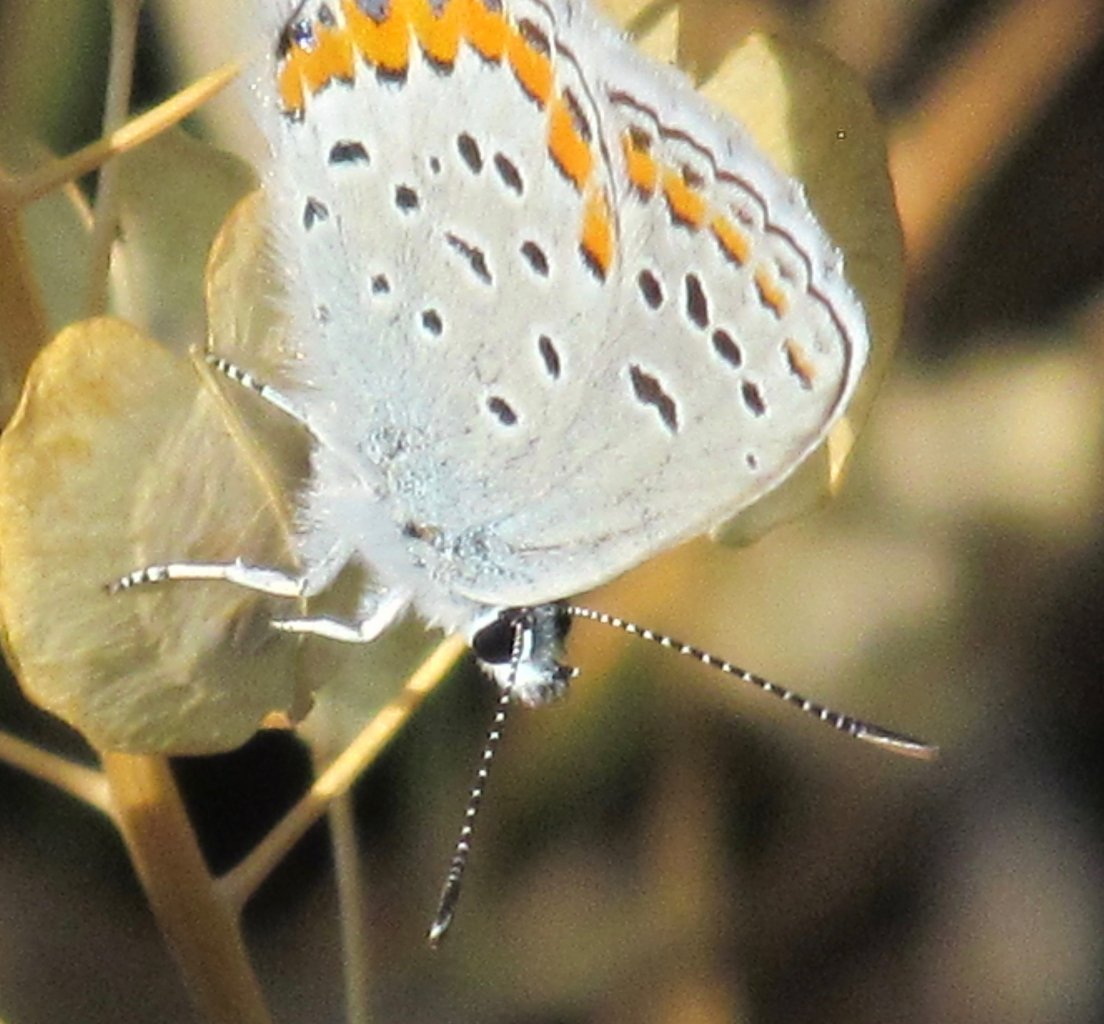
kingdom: Animalia
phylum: Arthropoda
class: Insecta
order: Lepidoptera
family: Lycaenidae
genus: Lycaeides
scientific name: Lycaeides melissa
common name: Melissa Blue
